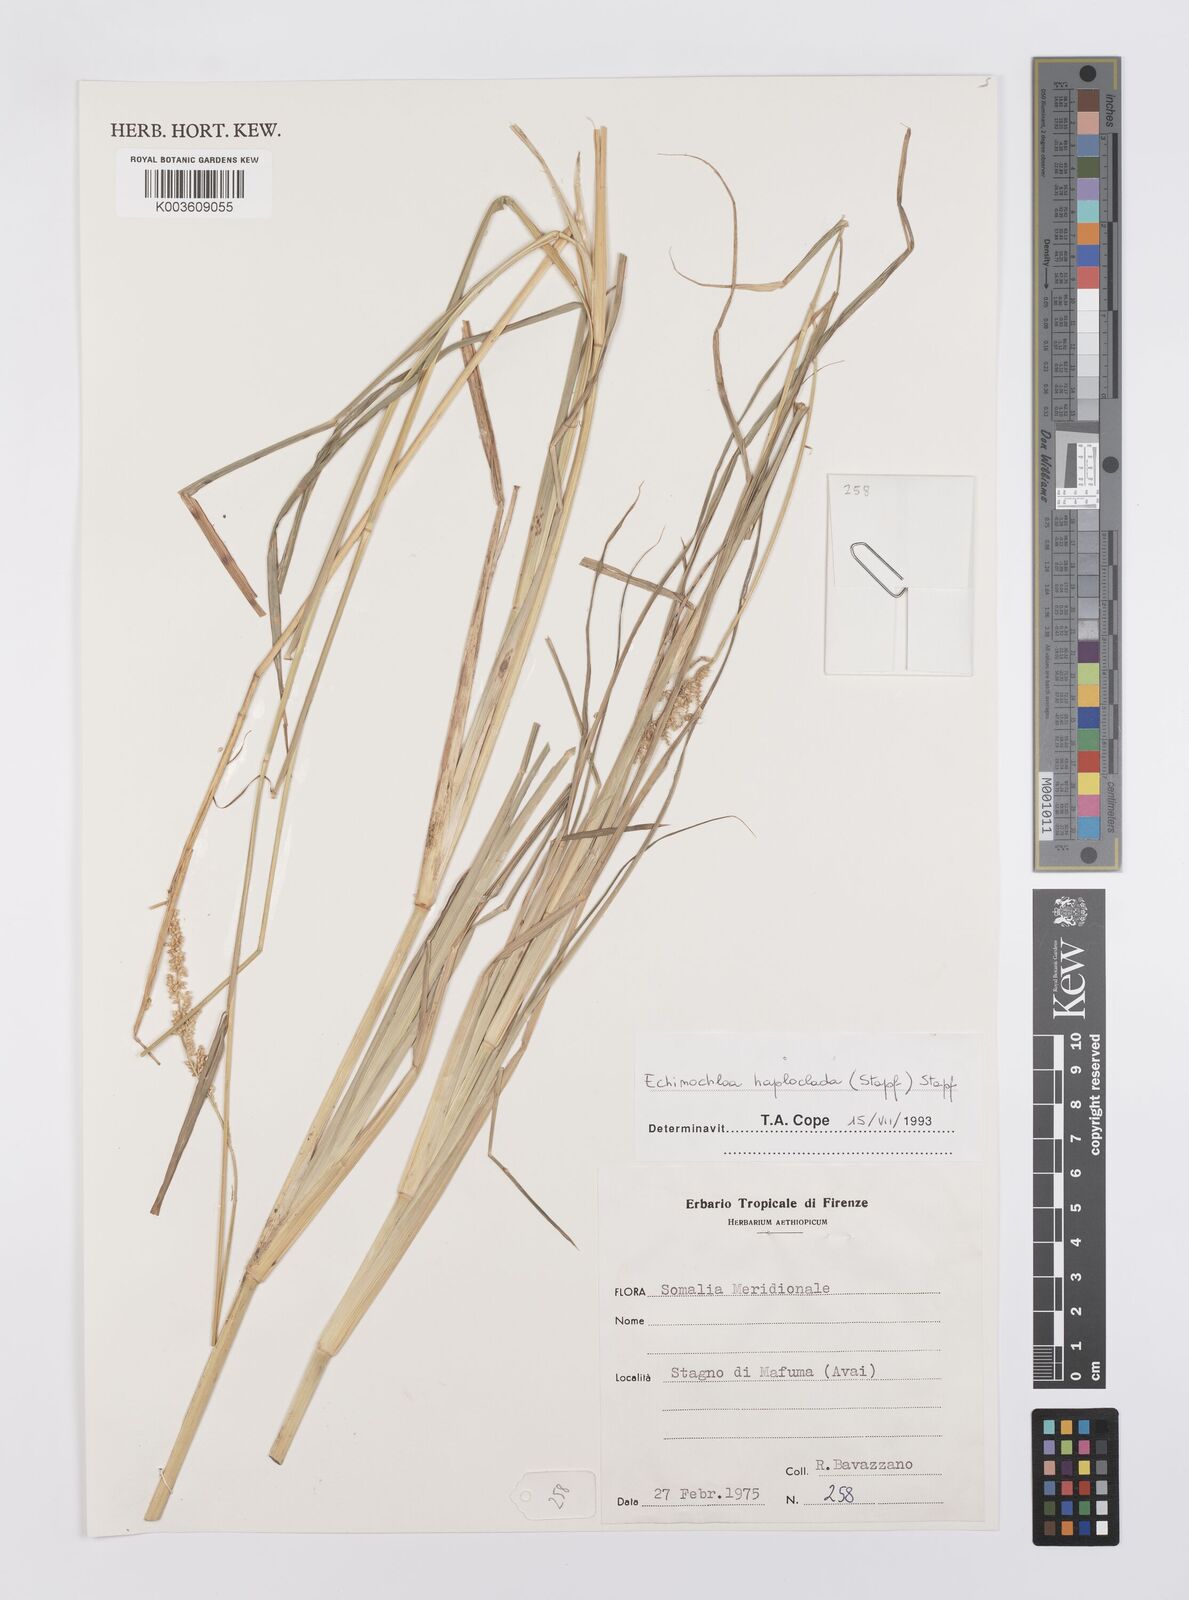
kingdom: Plantae
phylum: Tracheophyta
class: Liliopsida
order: Poales
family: Poaceae
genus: Echinochloa
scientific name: Echinochloa haploclada
